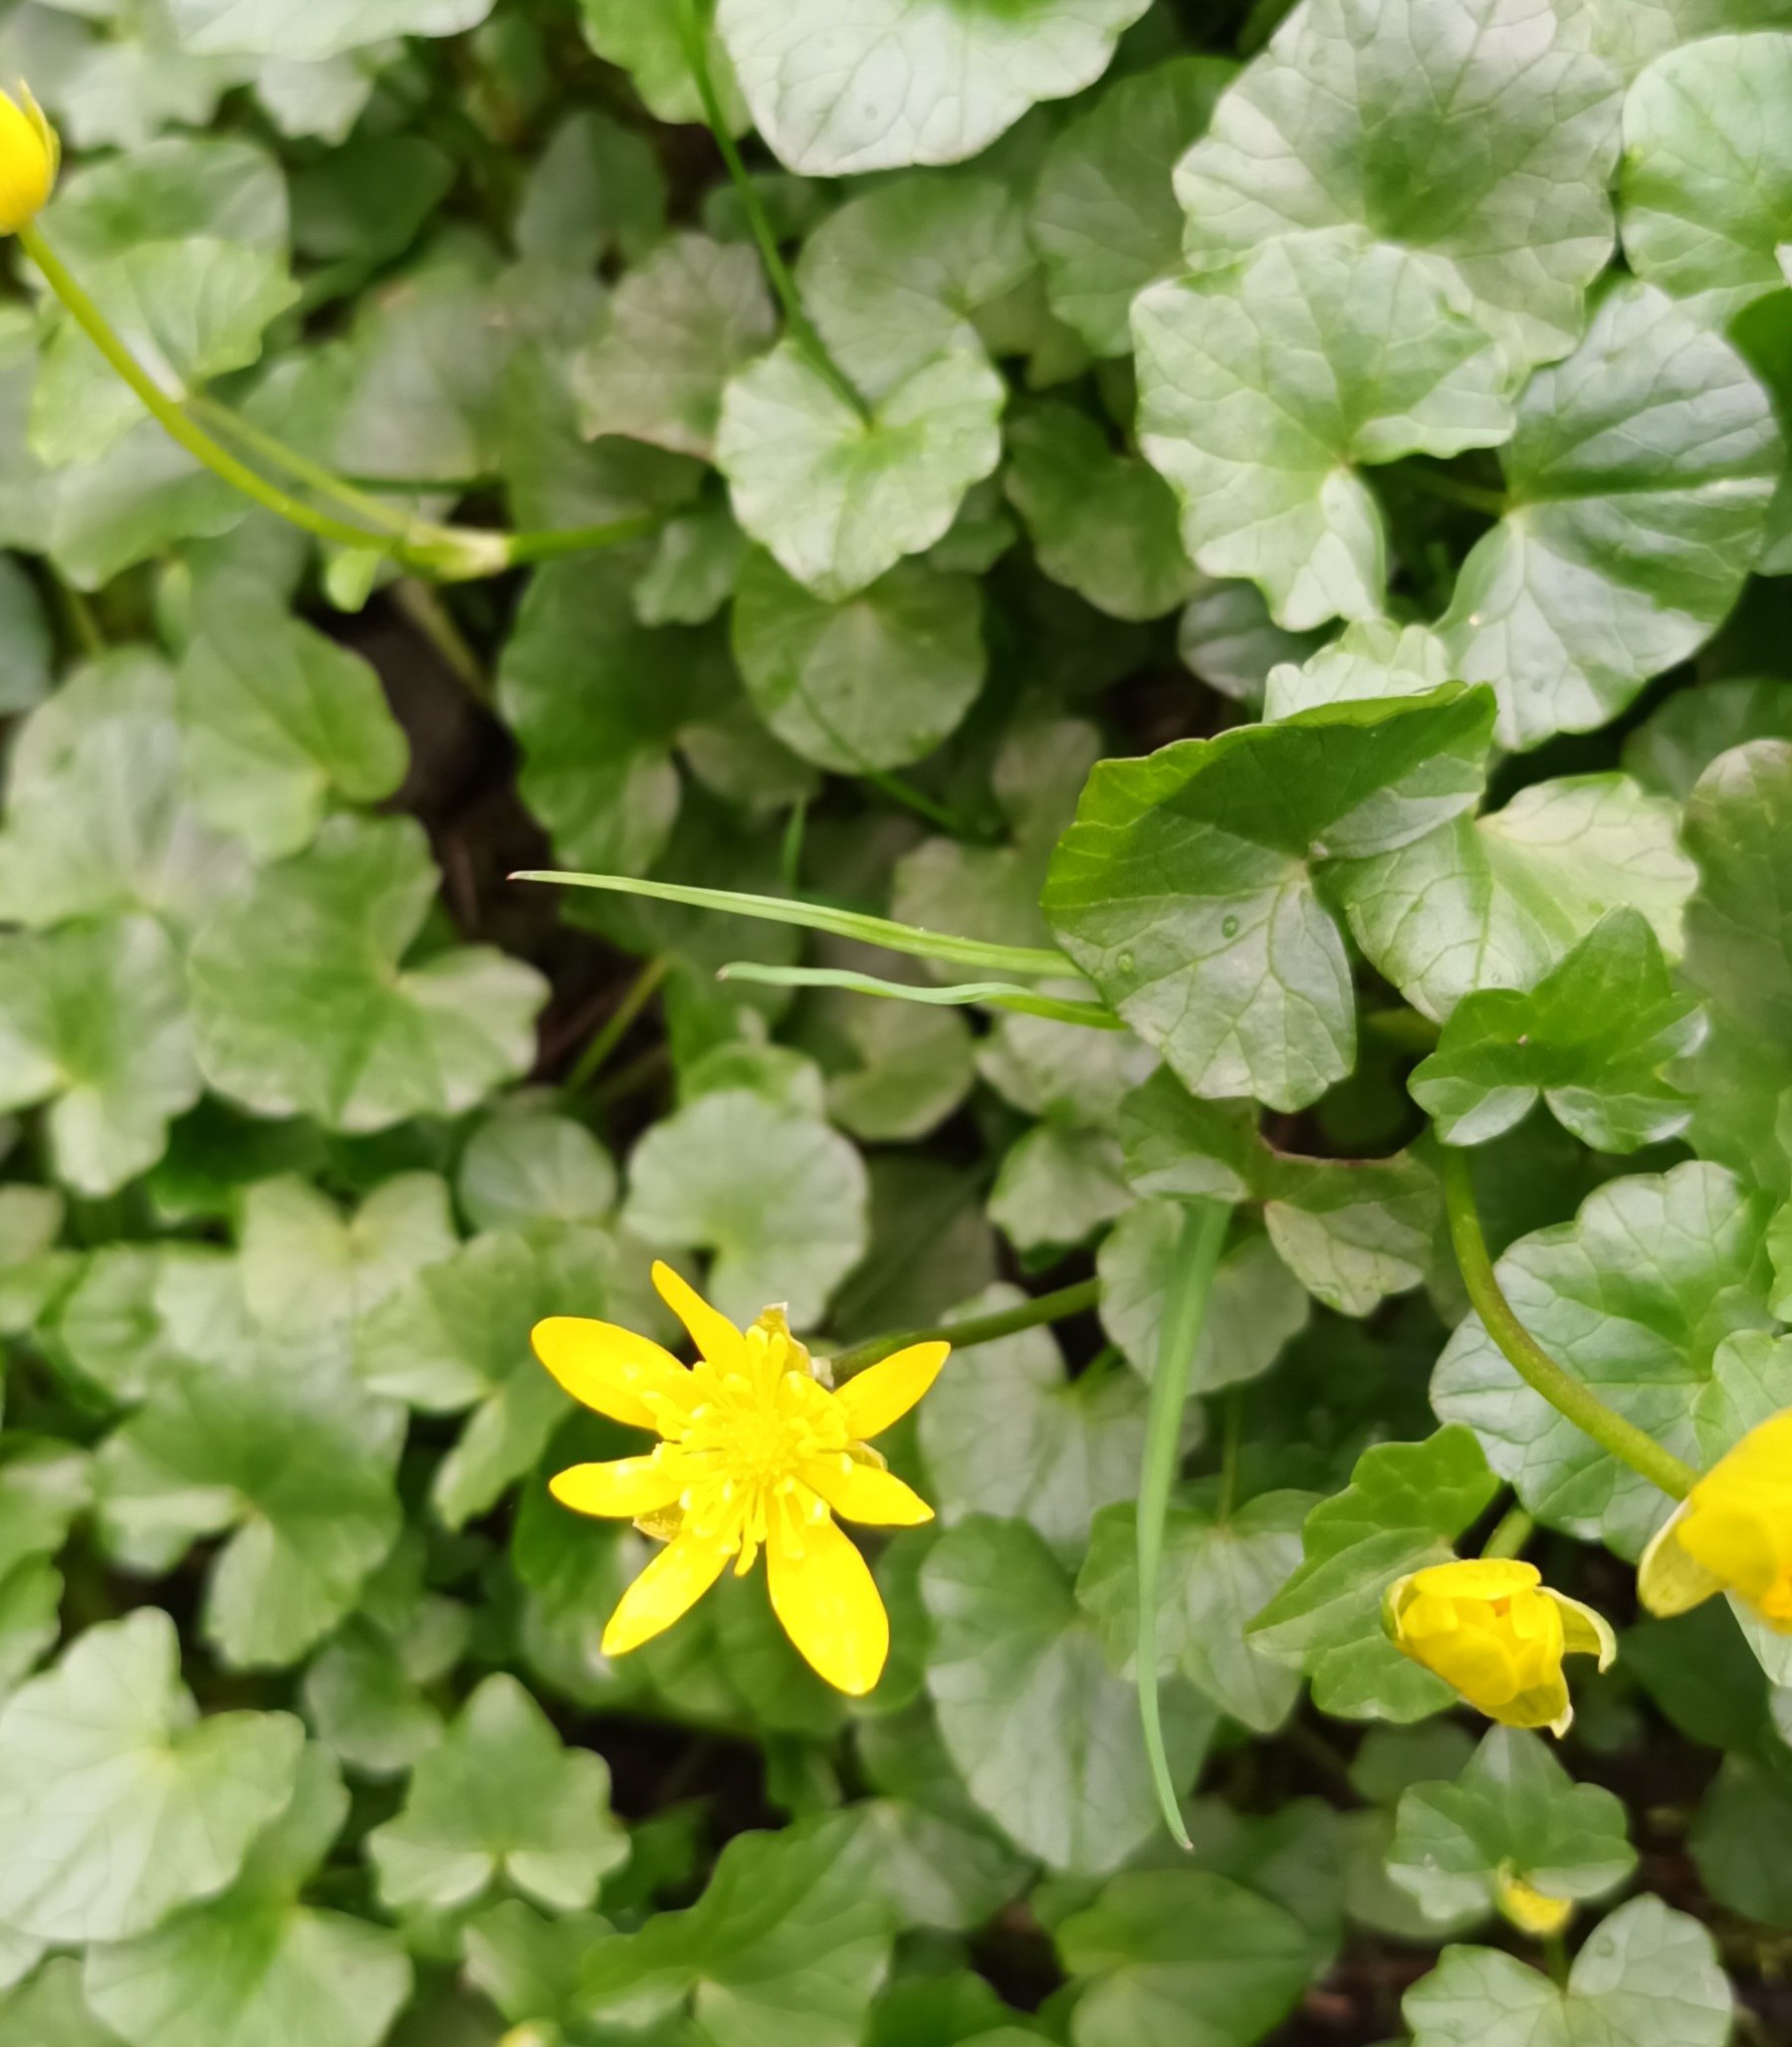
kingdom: Plantae
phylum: Tracheophyta
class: Magnoliopsida
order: Ranunculales
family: Ranunculaceae
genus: Ficaria
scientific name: Ficaria verna
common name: Vorterod
